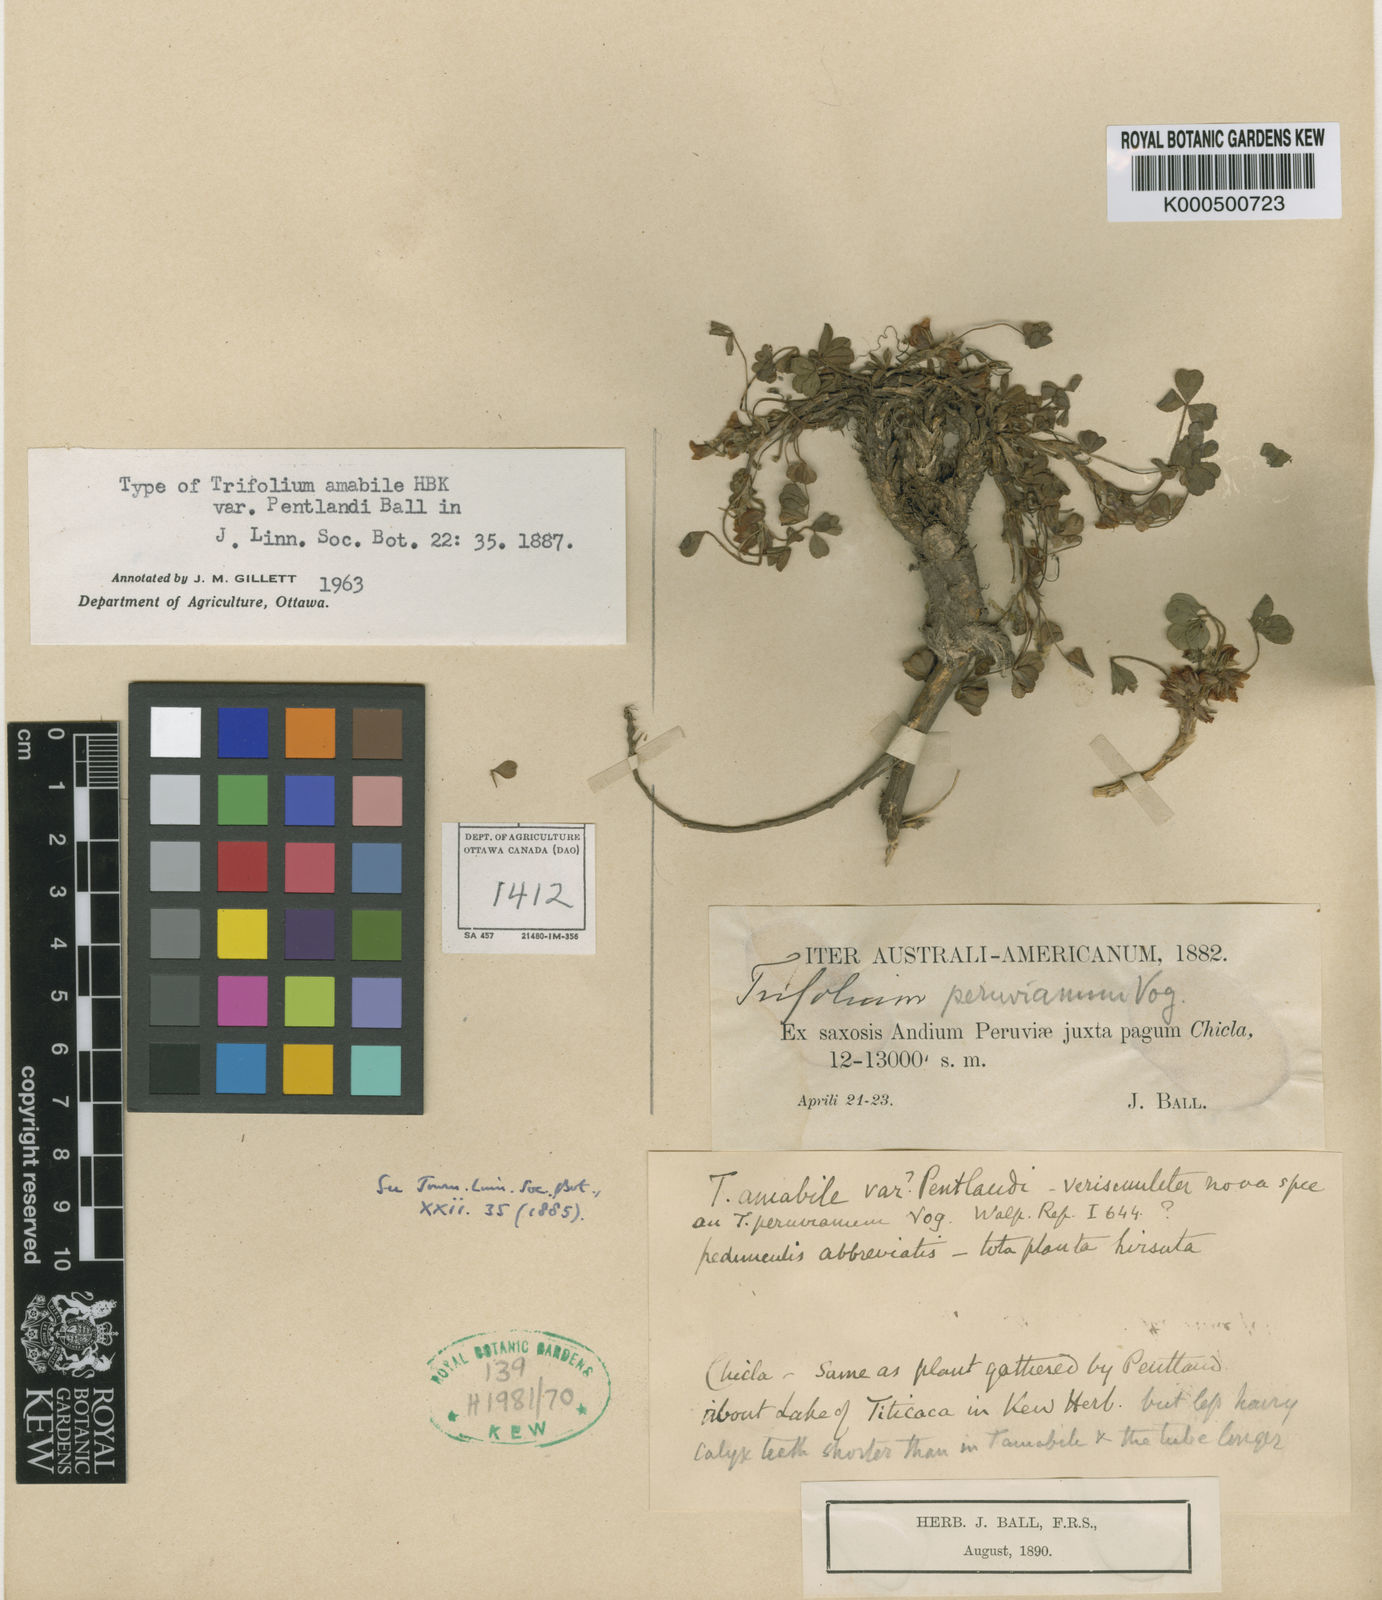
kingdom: Plantae
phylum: Tracheophyta
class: Magnoliopsida
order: Fabales
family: Fabaceae
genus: Trifolium
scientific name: Trifolium peruvianum
